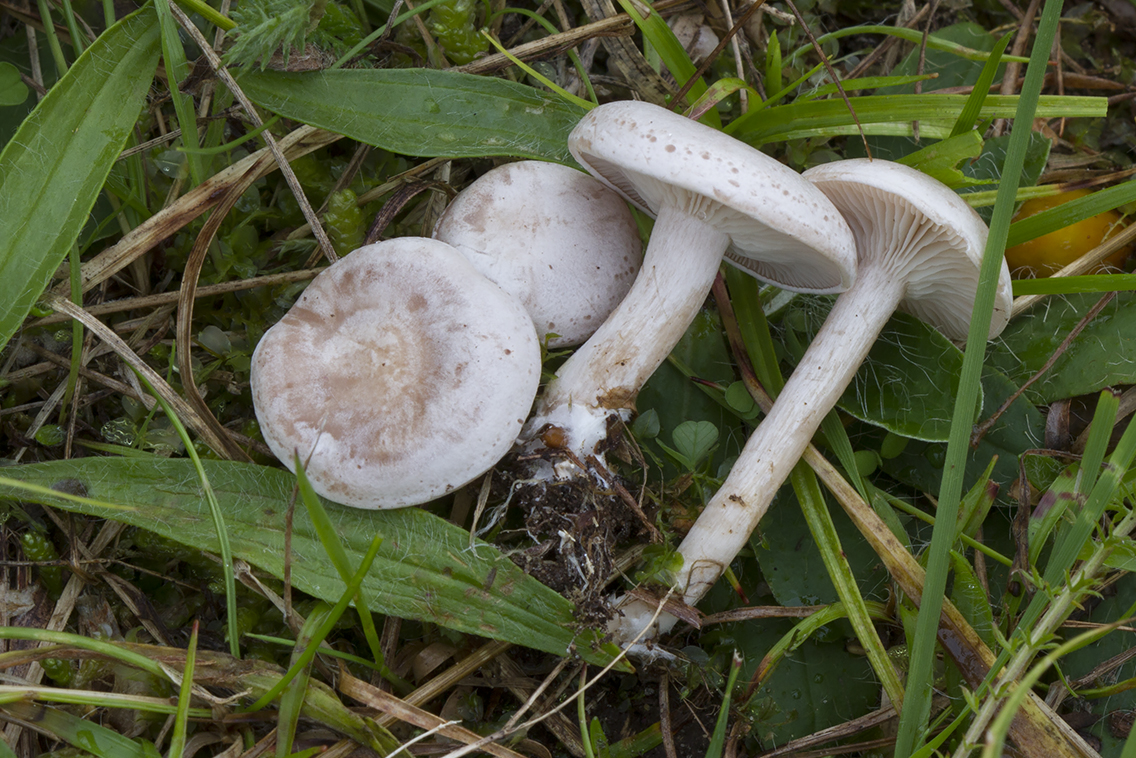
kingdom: Fungi
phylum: Basidiomycota
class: Agaricomycetes
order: Agaricales
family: Tricholomataceae
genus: Clitocybe
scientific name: Clitocybe rivulosa
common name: eng-tragthat
